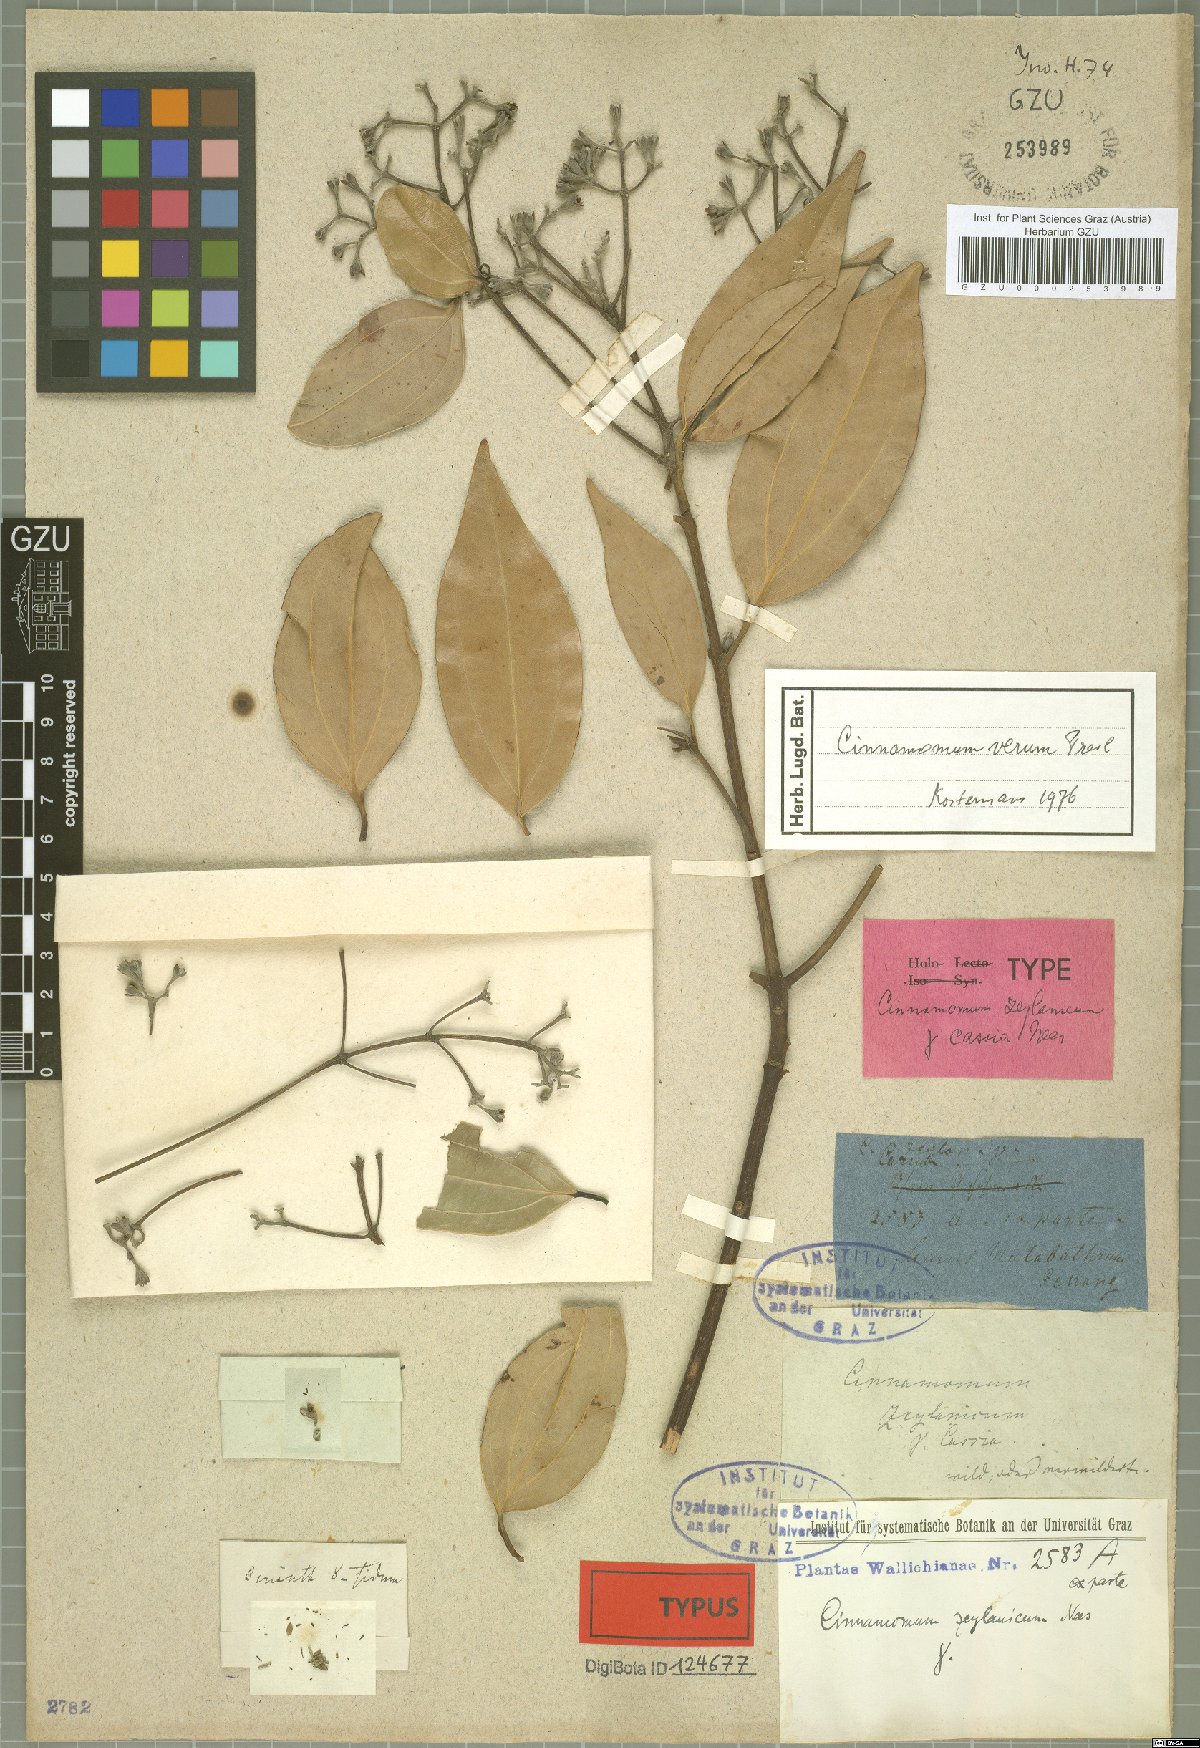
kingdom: Plantae
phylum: Tracheophyta
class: Magnoliopsida
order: Laurales
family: Lauraceae
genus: Cinnamomum
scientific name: Cinnamomum verum
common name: Cinnamon
